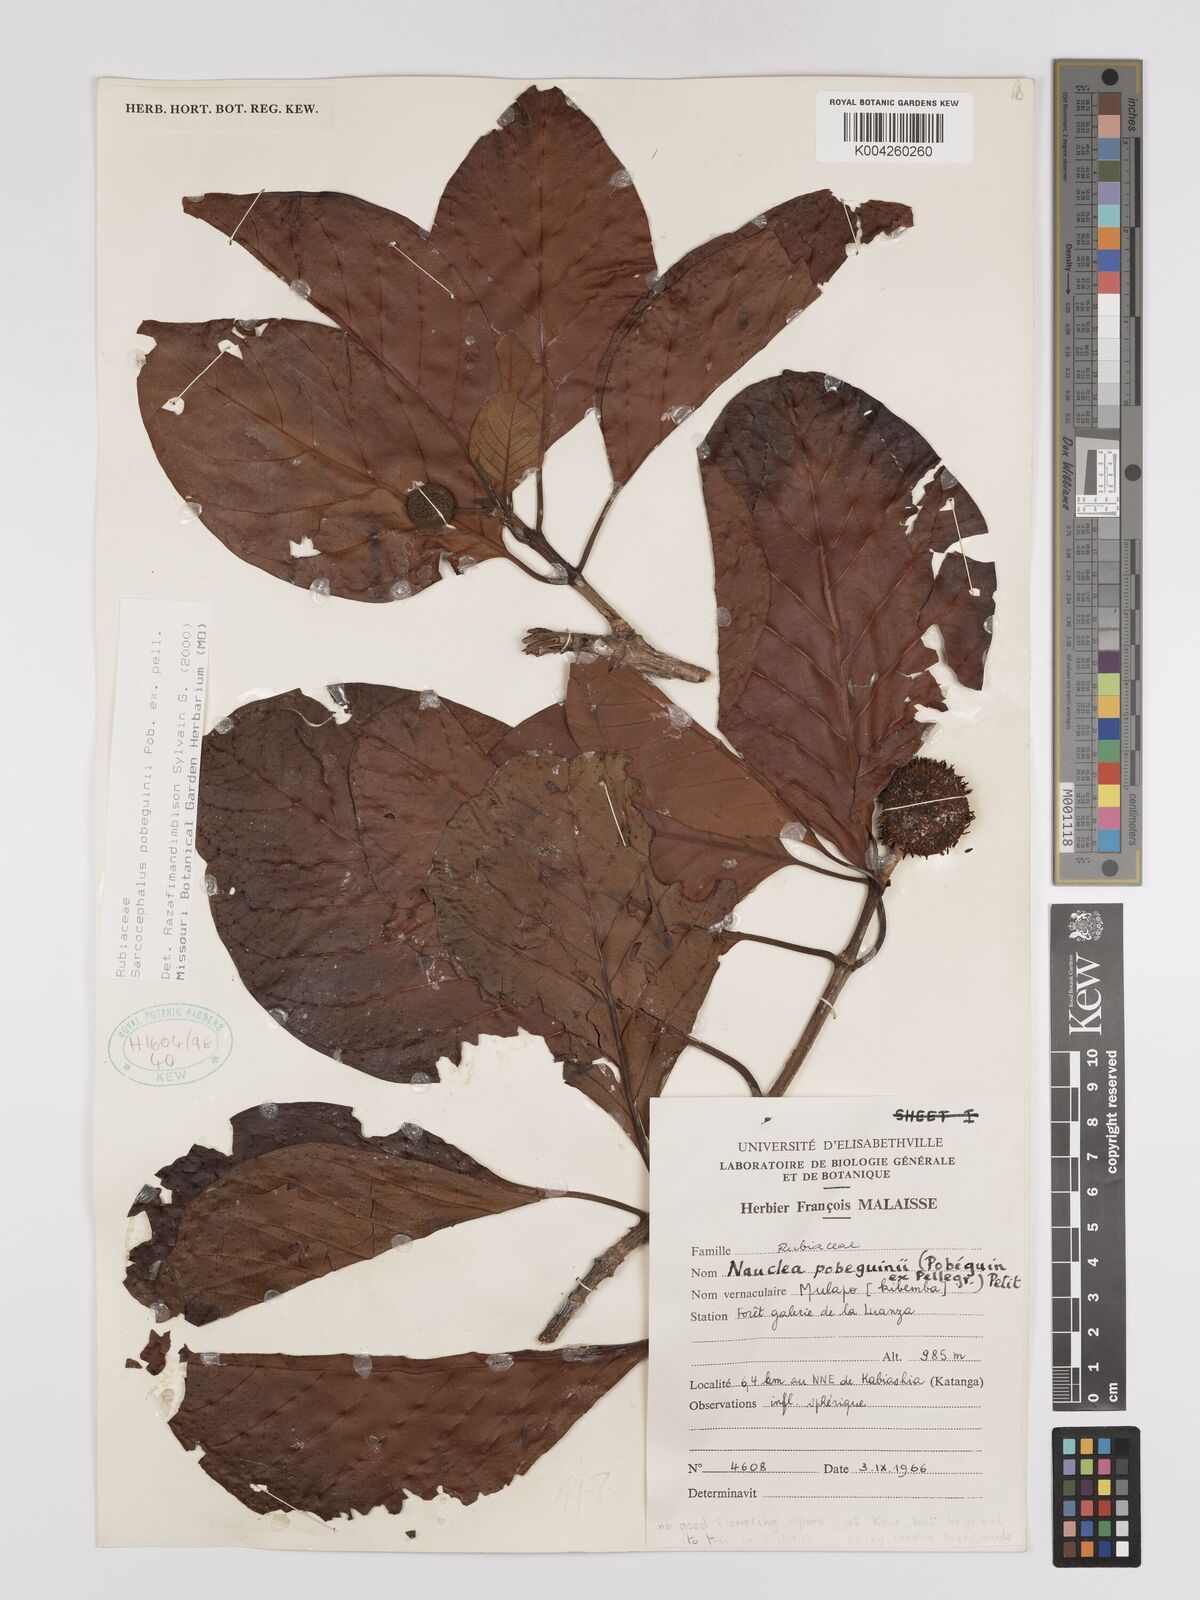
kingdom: Plantae
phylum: Tracheophyta
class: Magnoliopsida
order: Gentianales
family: Rubiaceae
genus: Nauclea
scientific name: Nauclea pobeguinii
